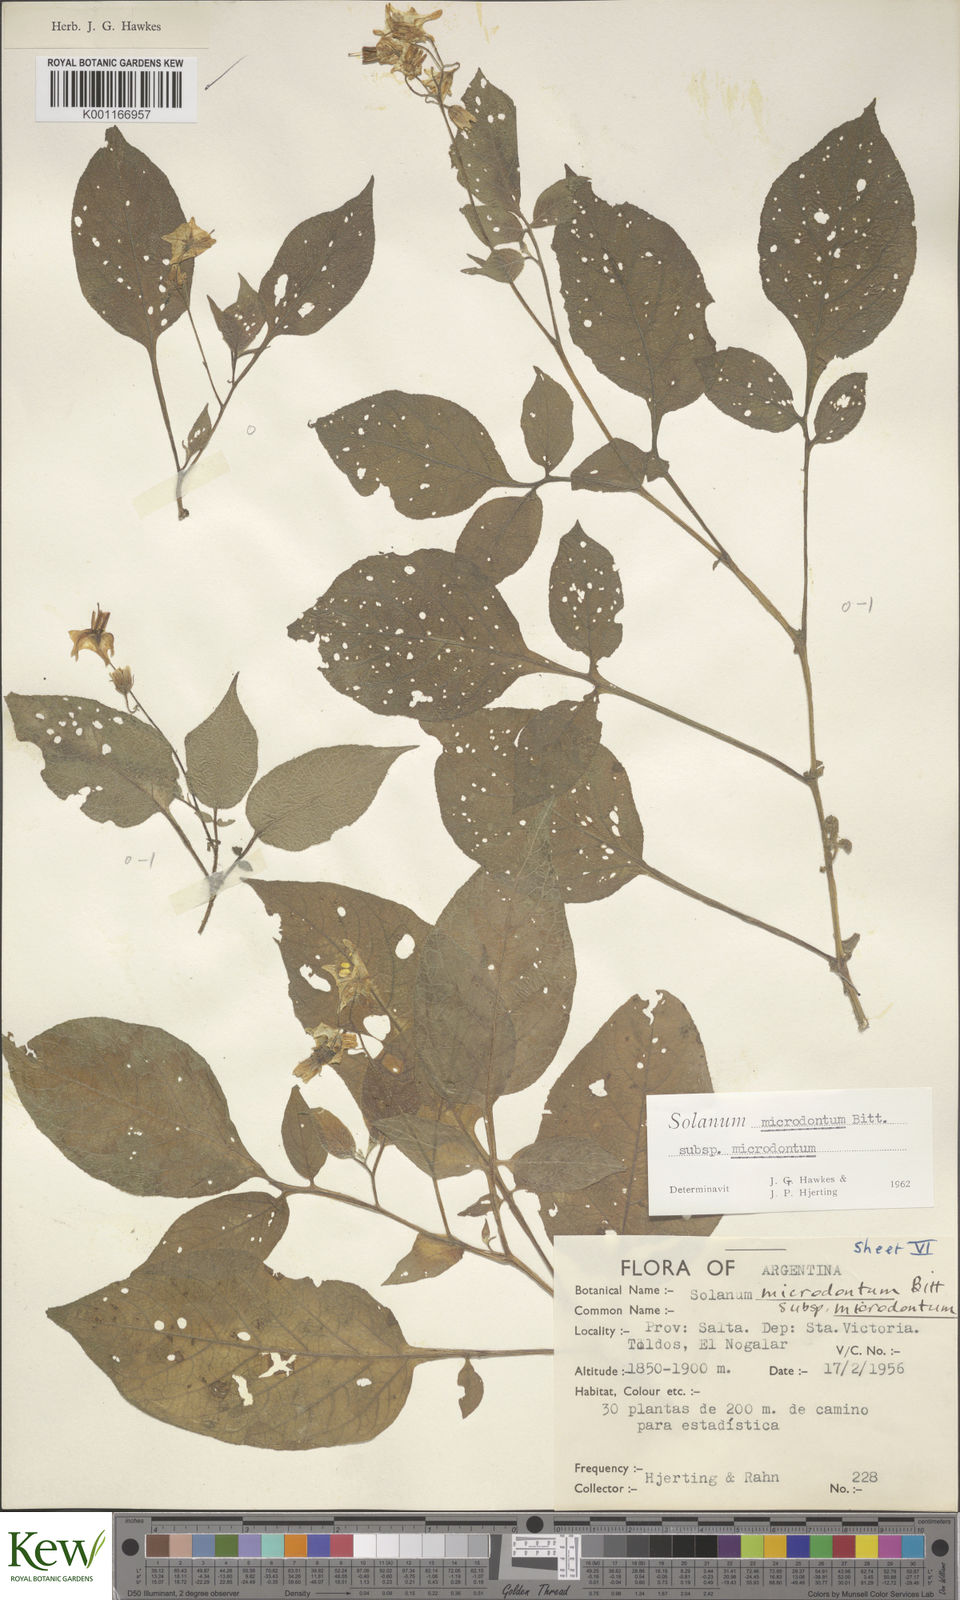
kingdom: Plantae
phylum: Tracheophyta
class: Magnoliopsida
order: Solanales
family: Solanaceae
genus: Solanum
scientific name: Solanum microdontum
